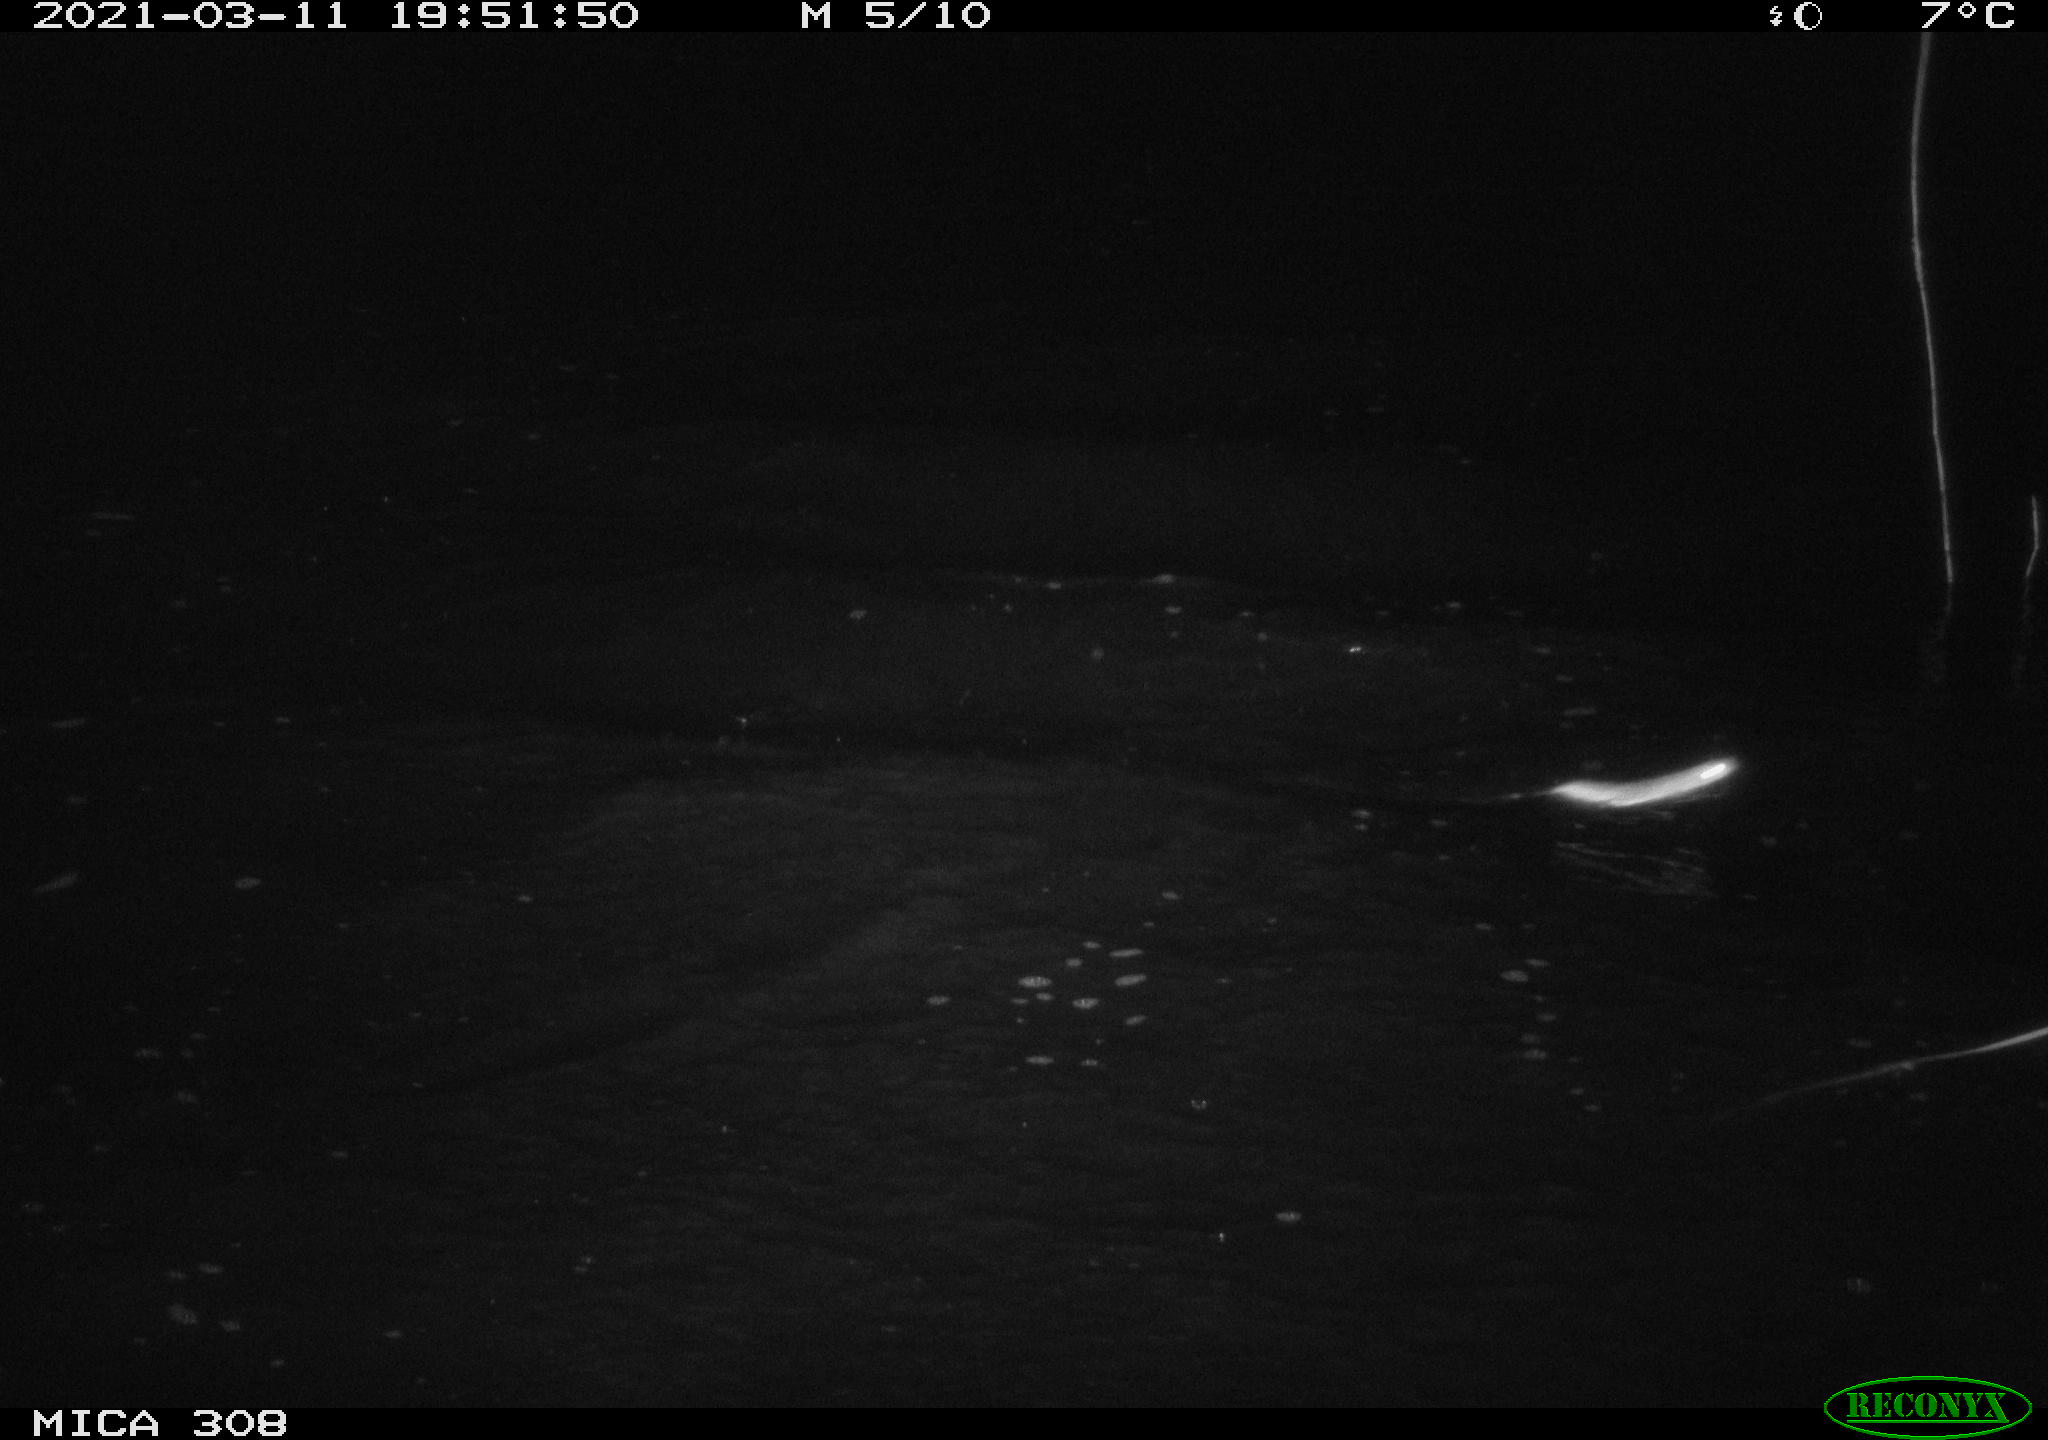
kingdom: Animalia
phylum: Chordata
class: Mammalia
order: Rodentia
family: Muridae
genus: Rattus
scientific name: Rattus norvegicus
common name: Brown rat
